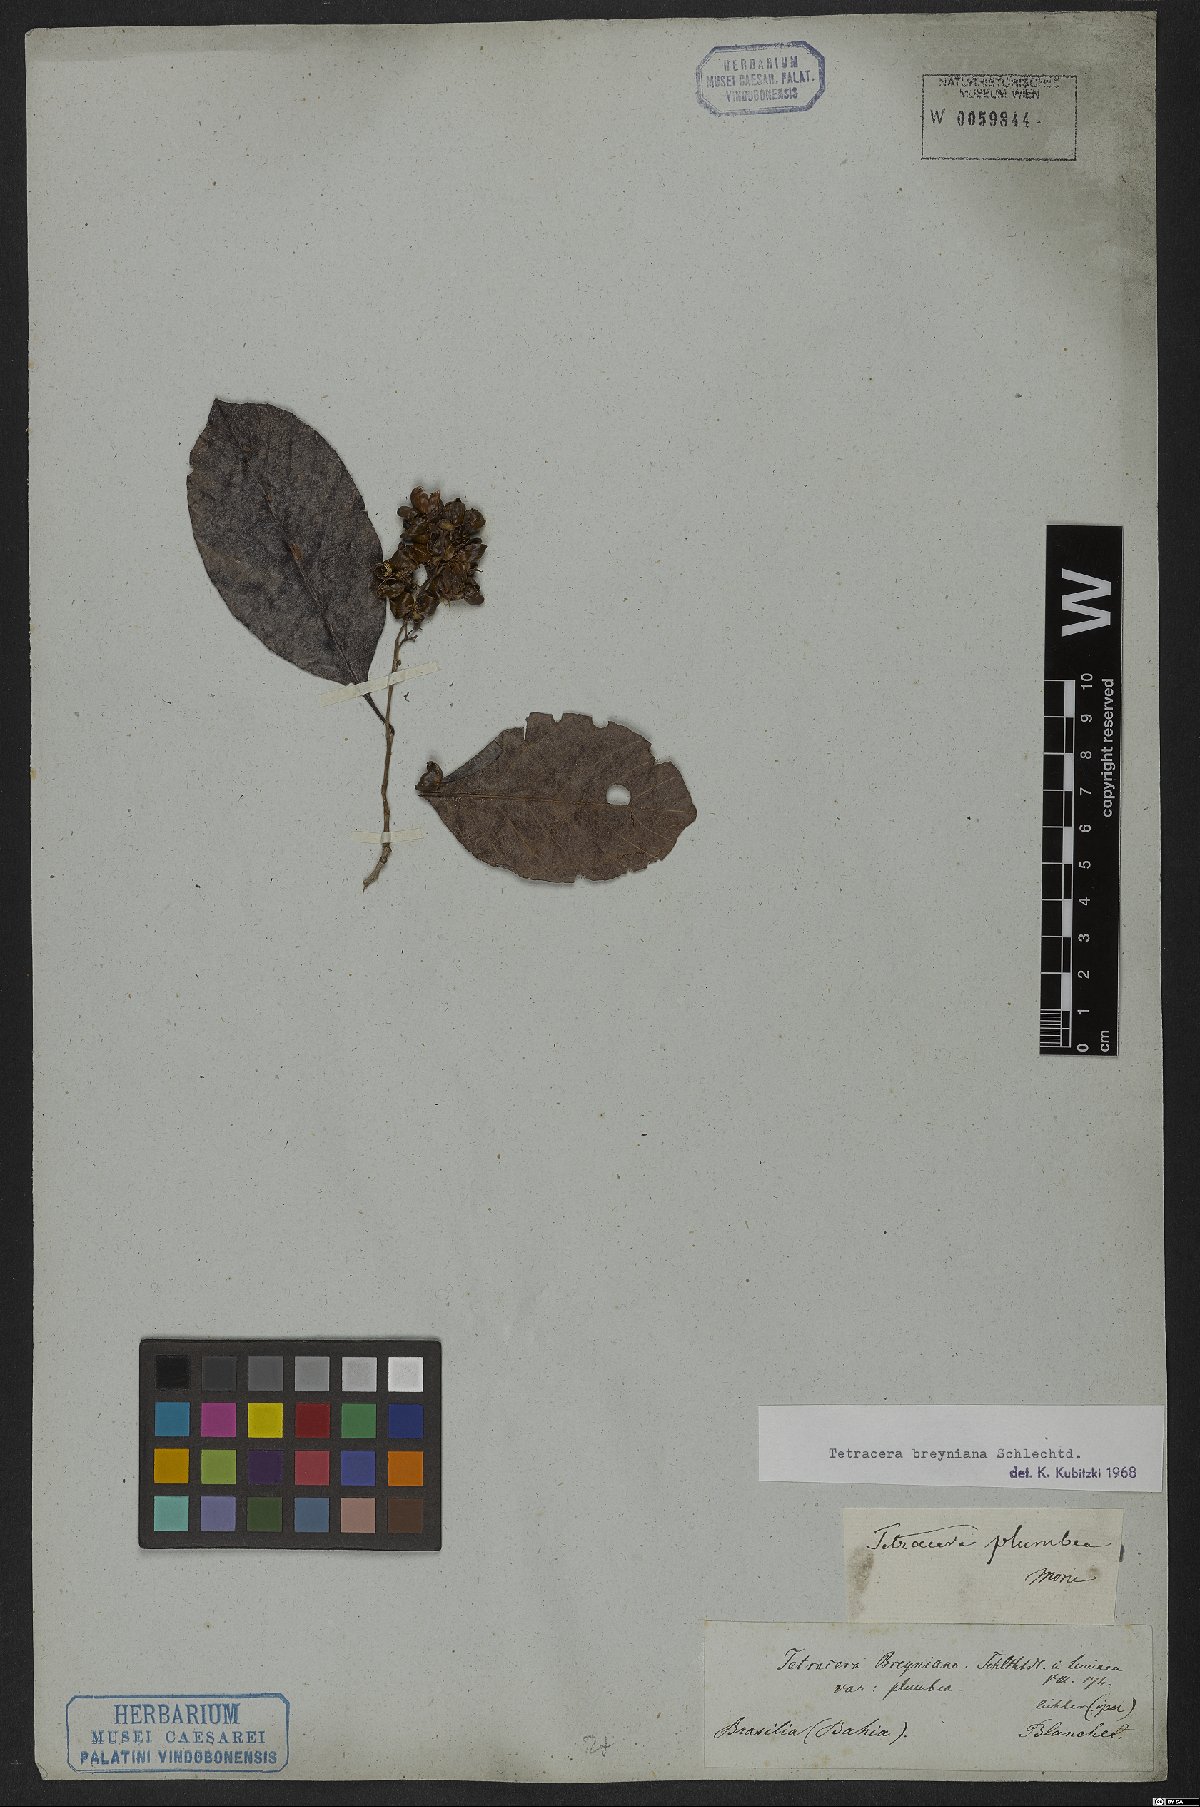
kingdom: Plantae
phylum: Tracheophyta
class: Magnoliopsida
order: Dilleniales
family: Dilleniaceae
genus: Tetracera
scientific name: Tetracera breyniana
